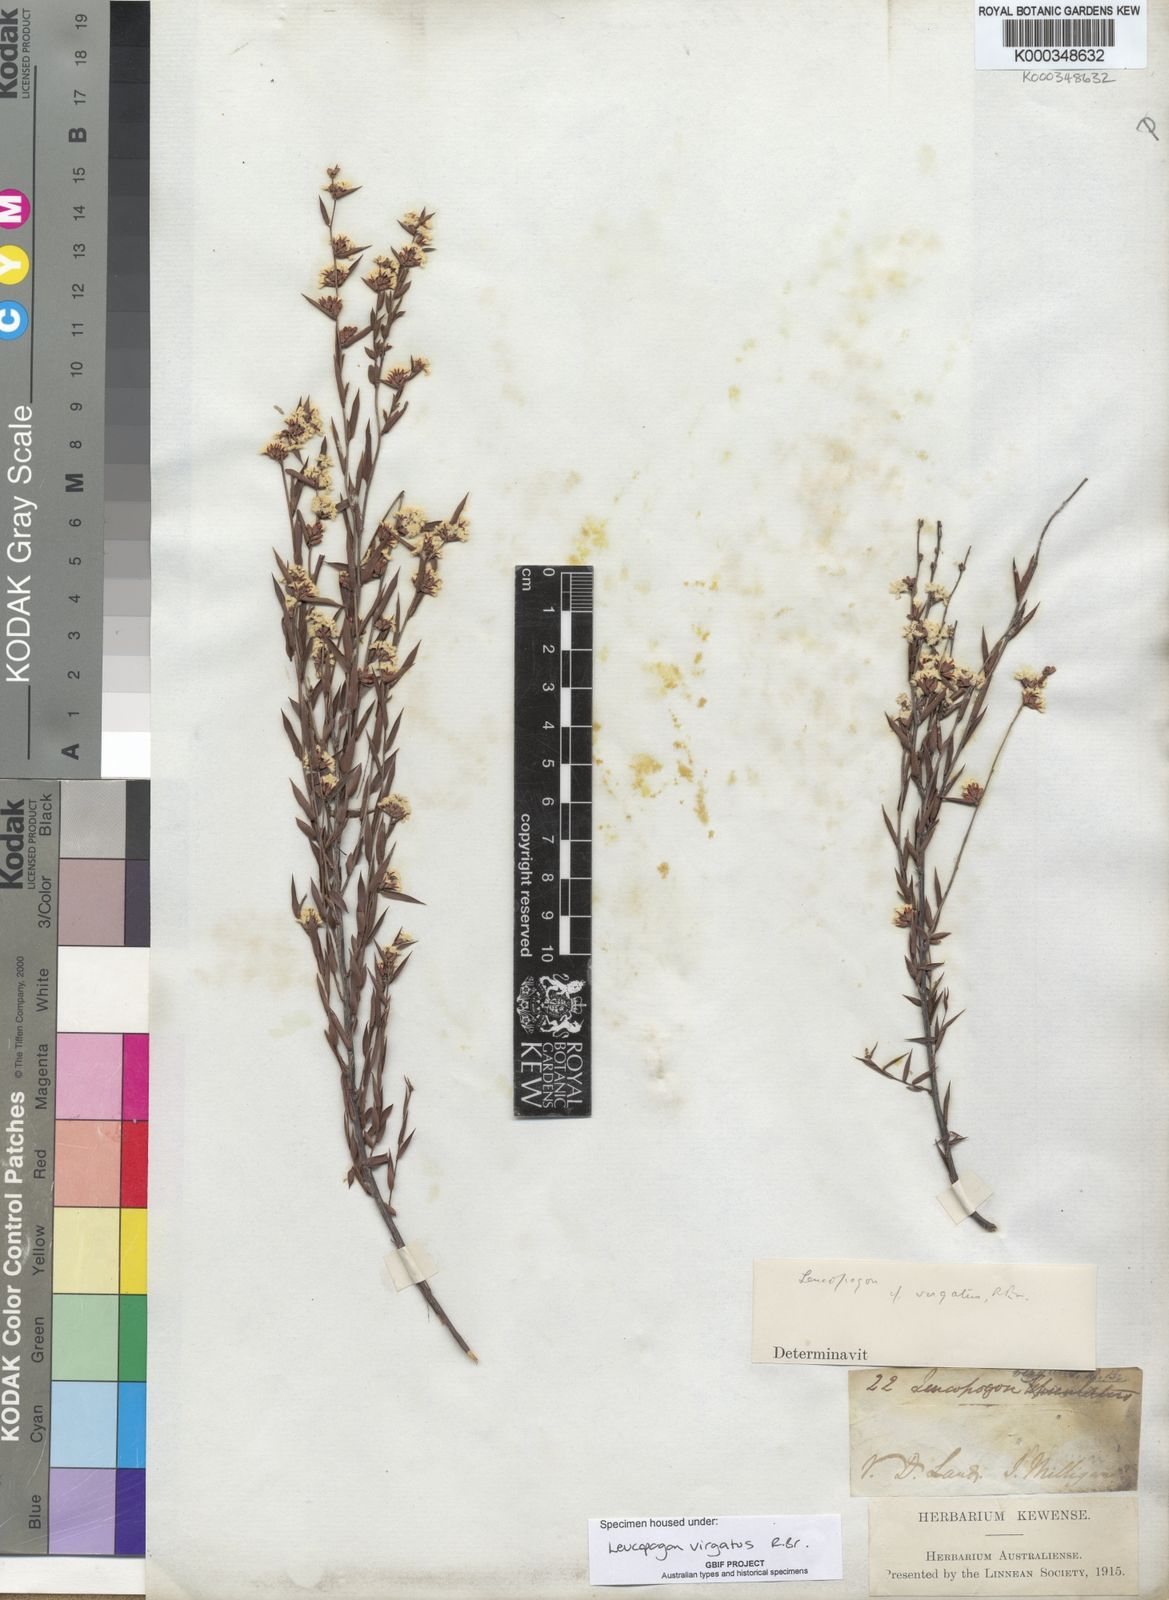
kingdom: Plantae
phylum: Tracheophyta
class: Magnoliopsida
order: Ericales
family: Ericaceae
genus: Leucopogon
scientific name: Leucopogon virgatus
